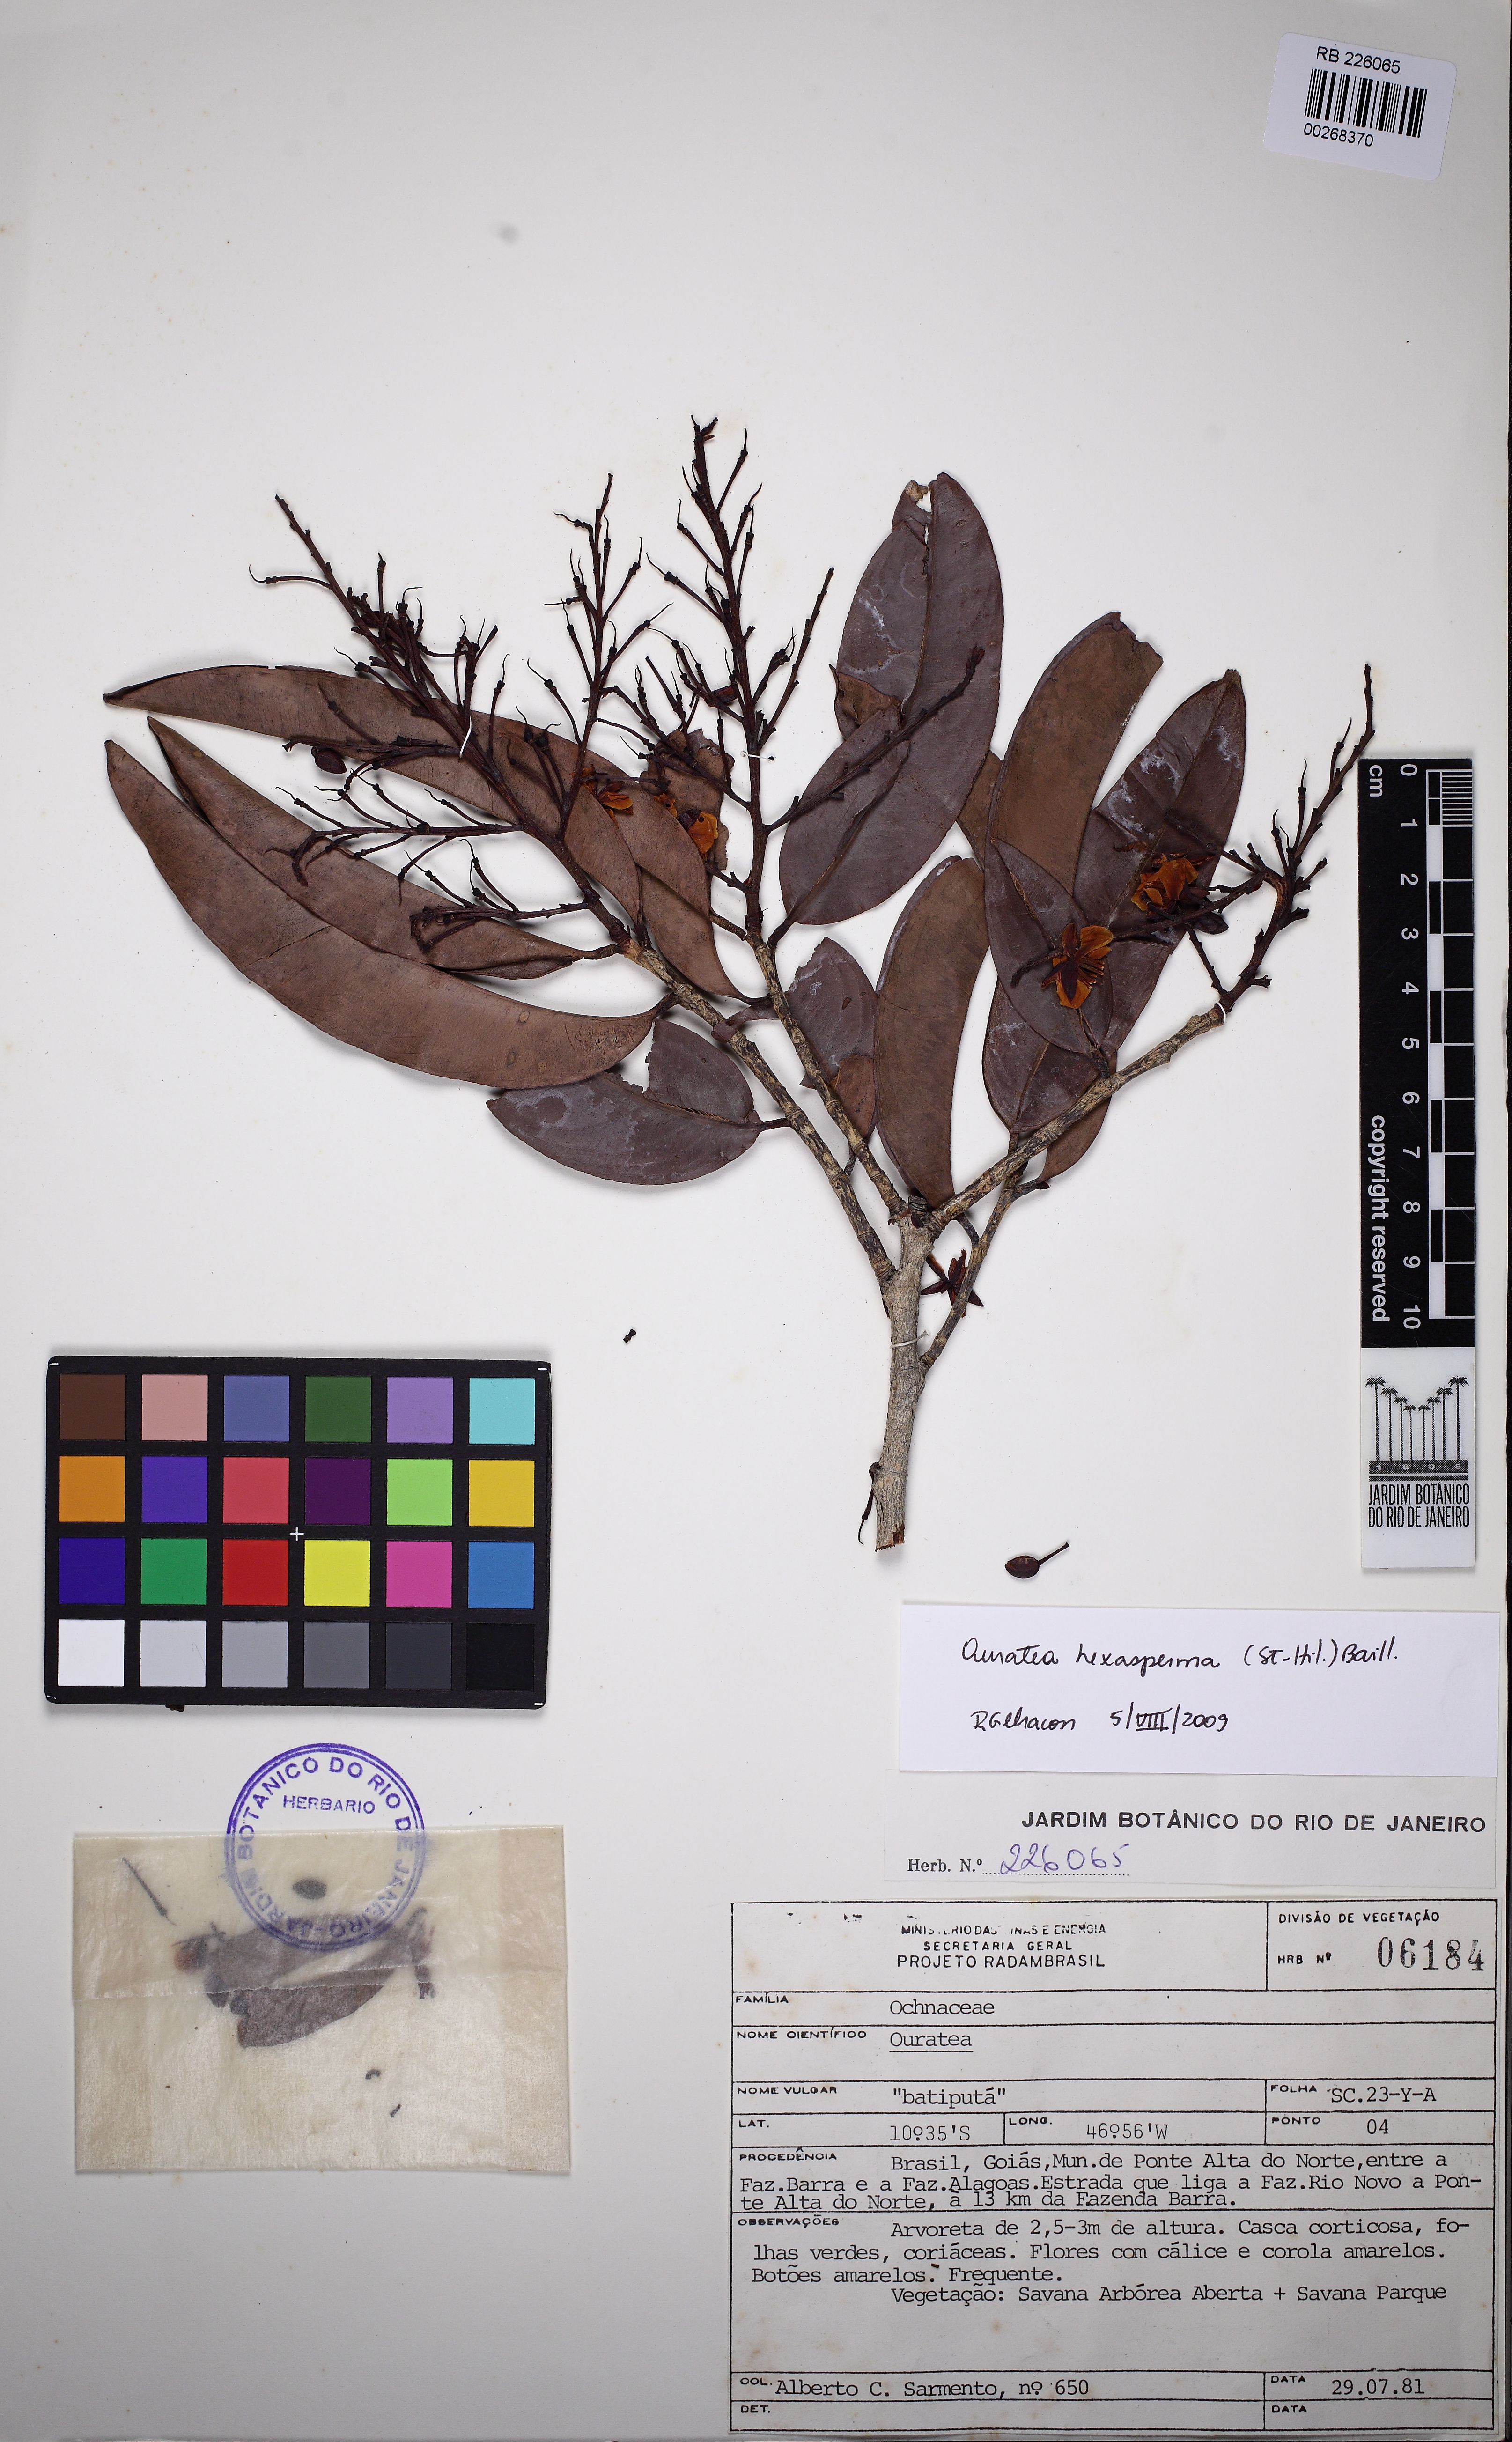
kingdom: Plantae
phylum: Tracheophyta
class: Magnoliopsida
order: Malpighiales
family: Ochnaceae
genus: Ouratea
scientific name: Ouratea hexasperma
